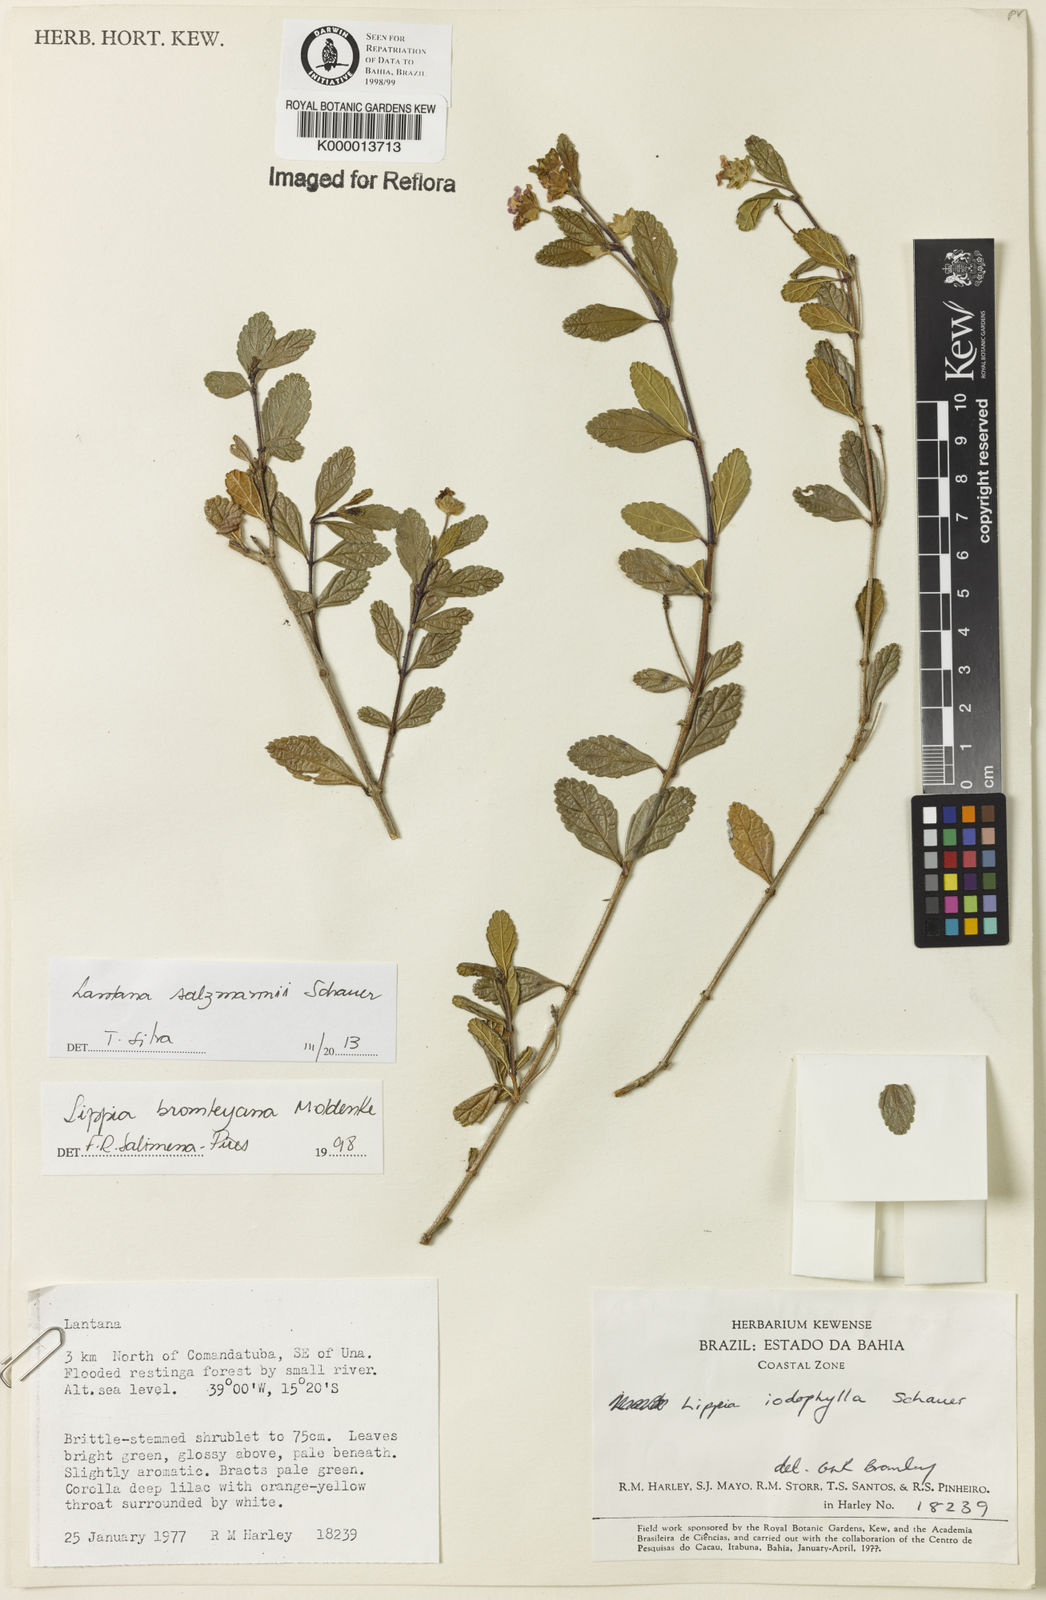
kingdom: Plantae
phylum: Tracheophyta
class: Magnoliopsida
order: Lamiales
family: Verbenaceae
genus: Lippia
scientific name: Lippia bromleyana
